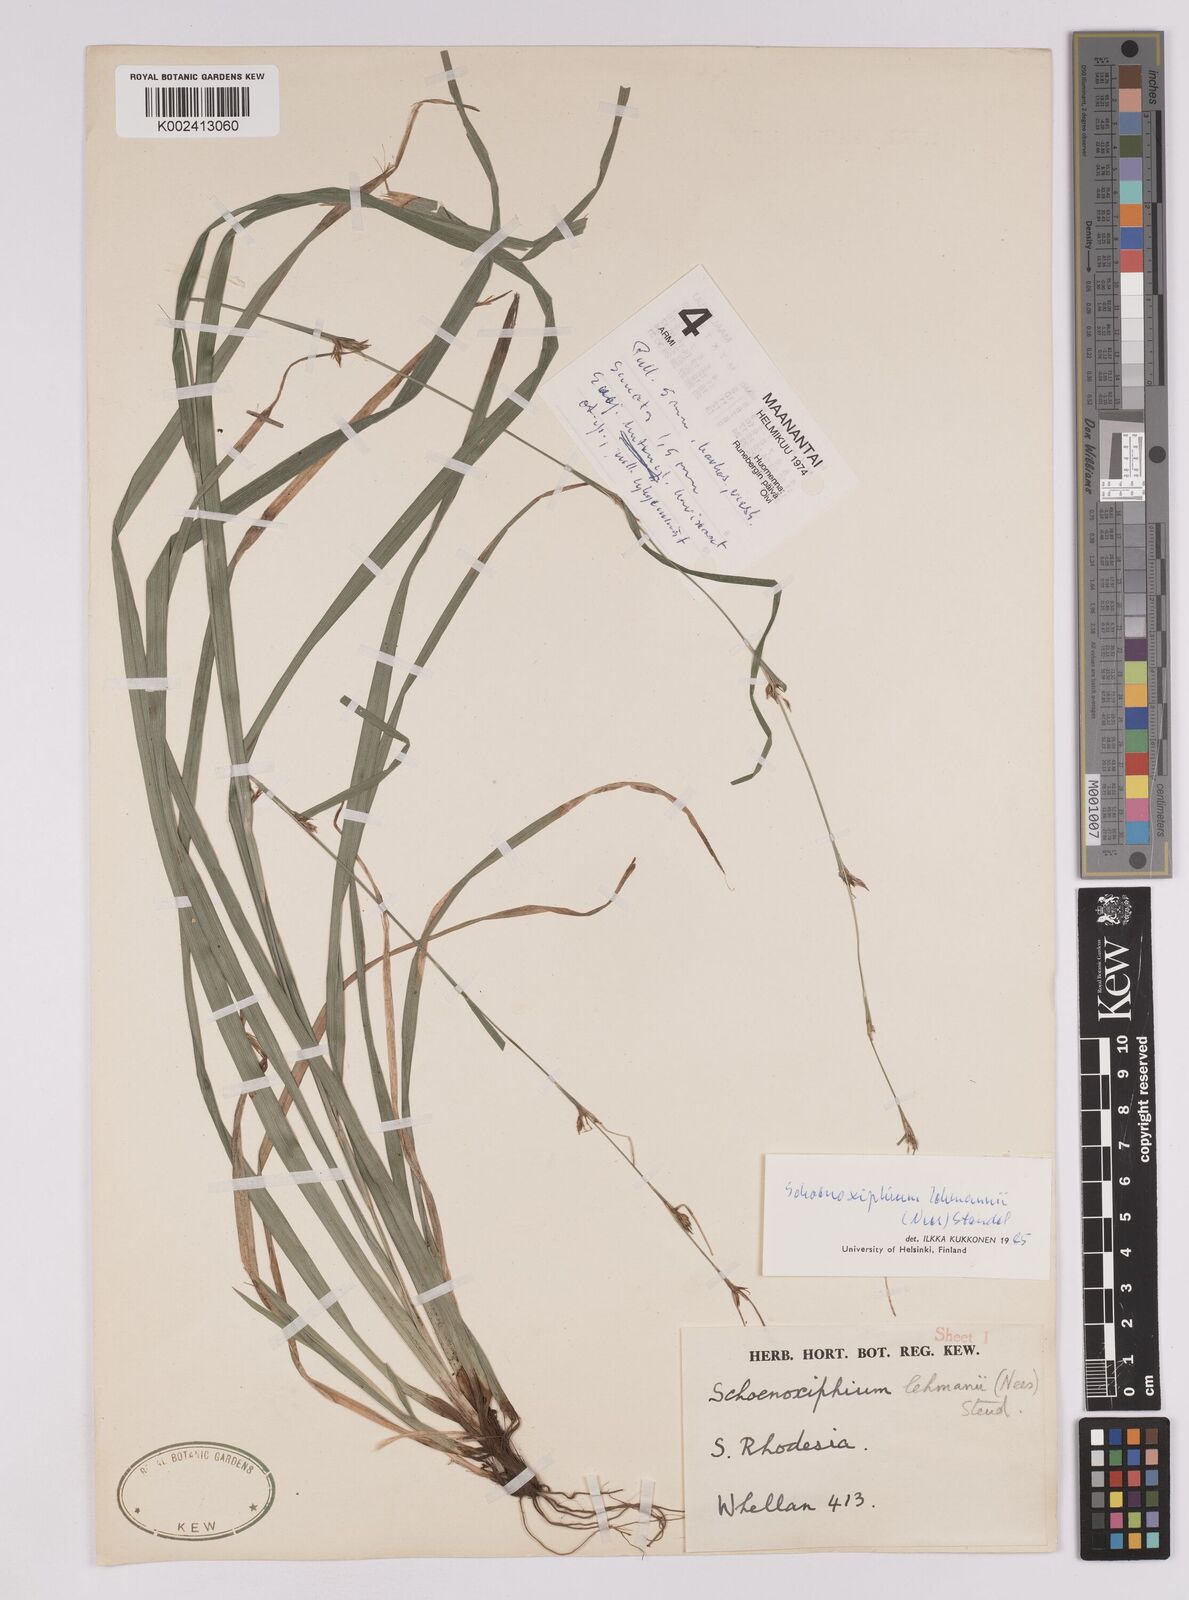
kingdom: Plantae
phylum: Tracheophyta
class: Liliopsida
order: Poales
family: Cyperaceae
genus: Carex
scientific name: Carex uhligii
